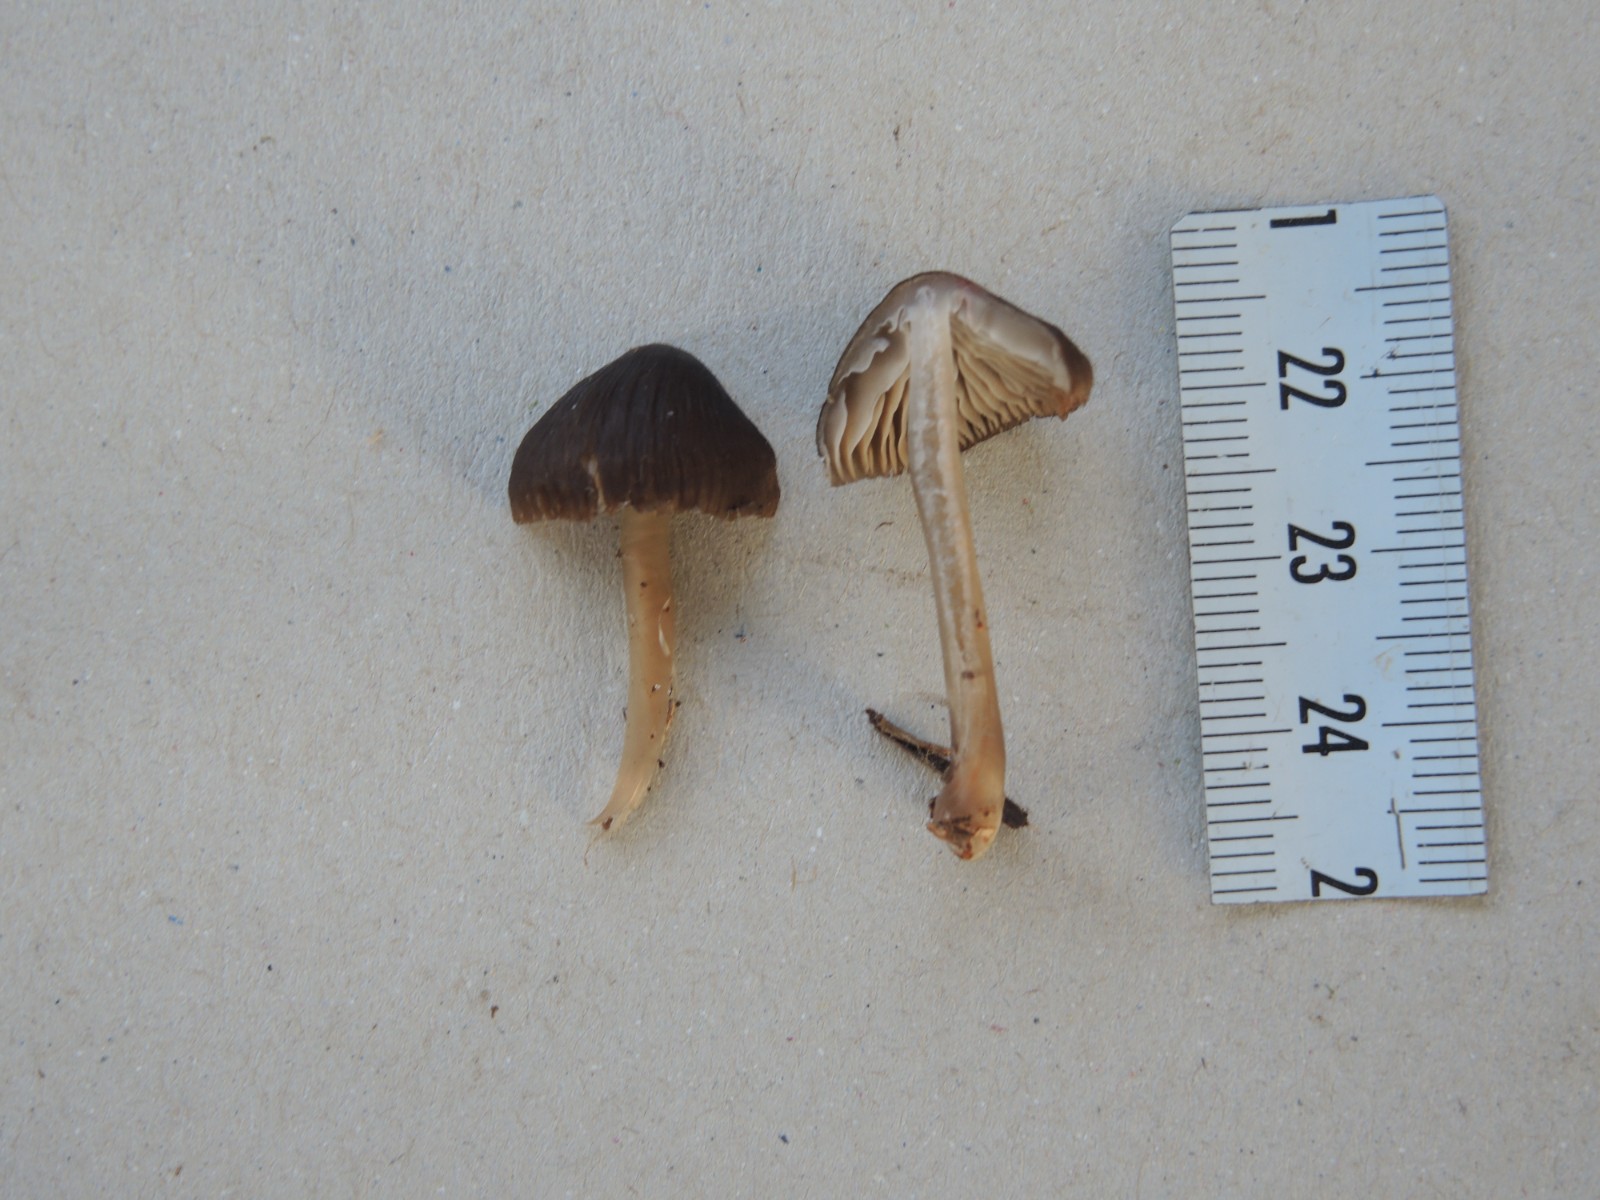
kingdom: Fungi
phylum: Basidiomycota
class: Agaricomycetes
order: Agaricales
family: Mycenaceae
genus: Mycena
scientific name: Mycena megaspora
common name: brusk-huesvamp
